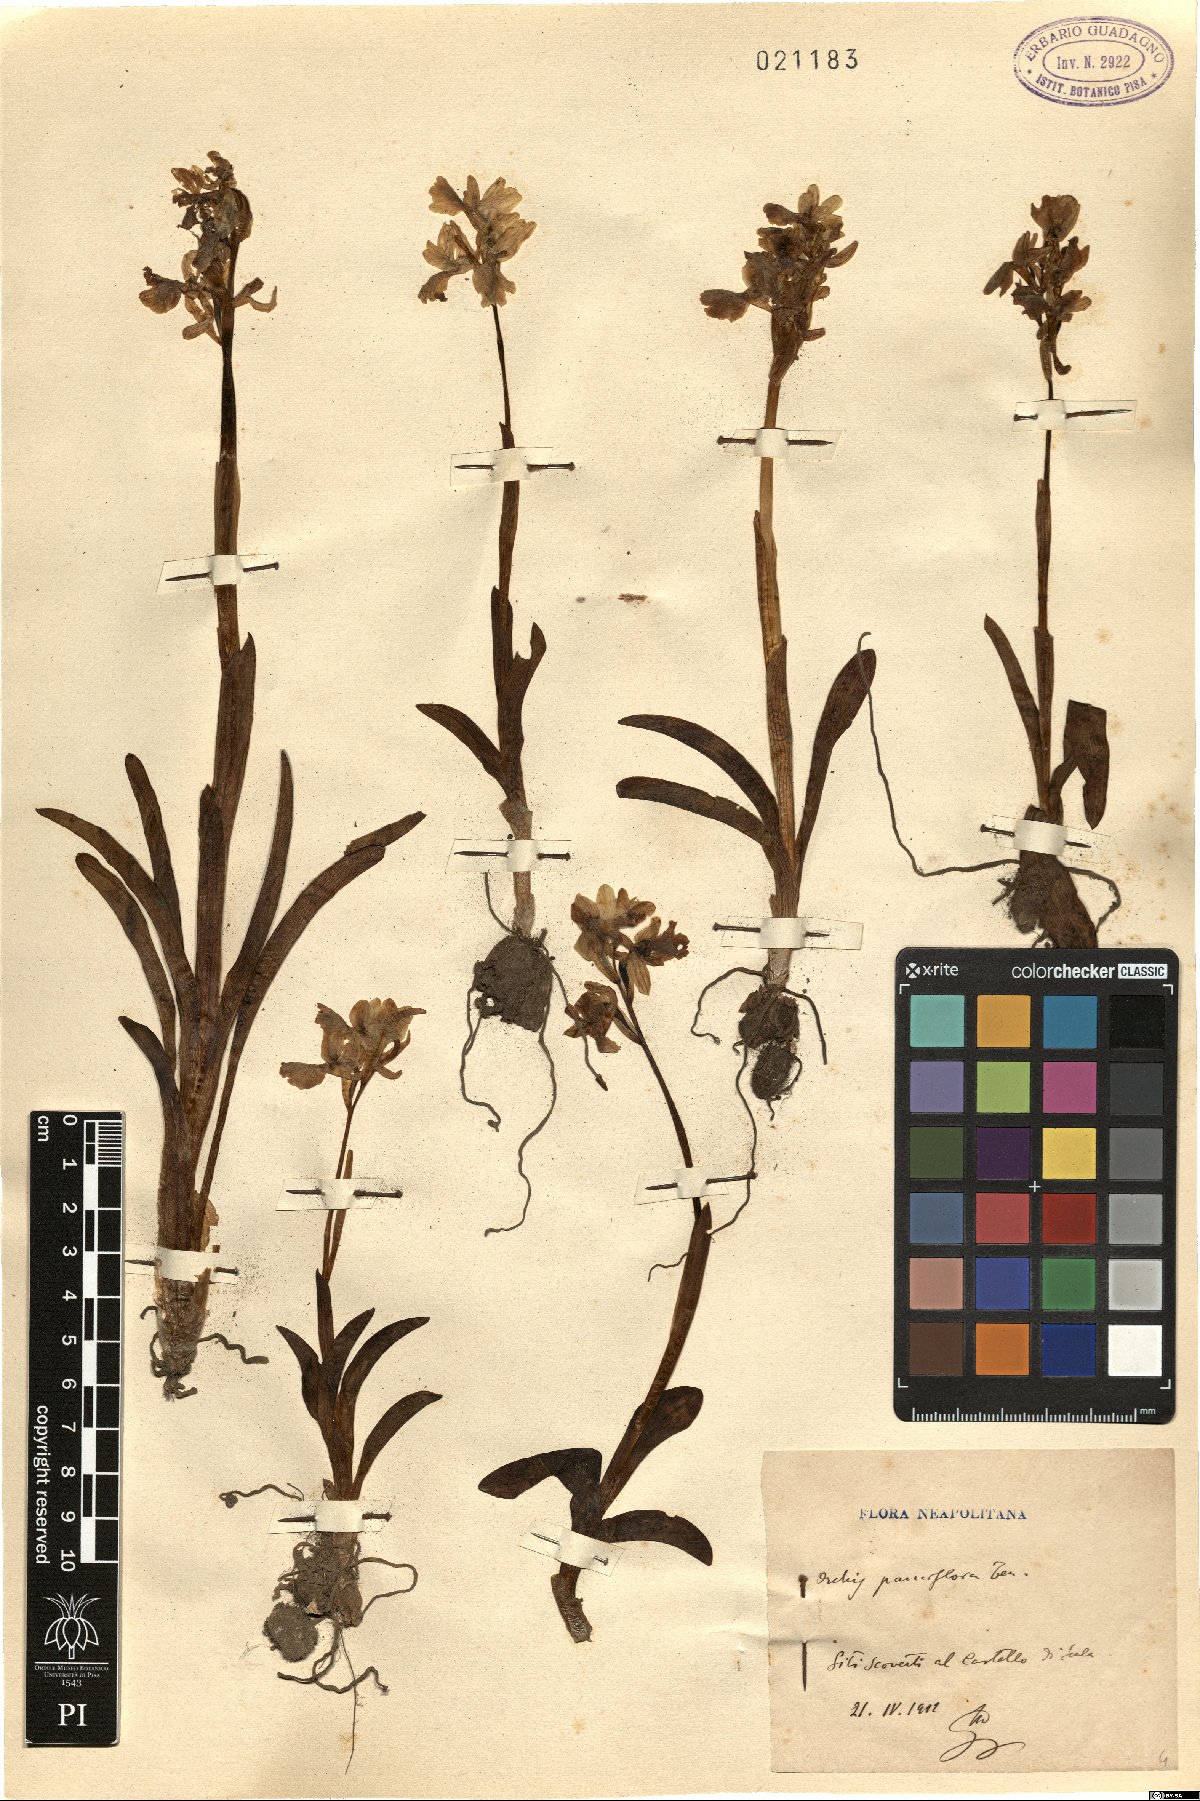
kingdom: Plantae
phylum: Tracheophyta
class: Liliopsida
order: Asparagales
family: Orchidaceae
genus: Orchis
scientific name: Orchis pauciflora
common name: Few-flowered orchid
